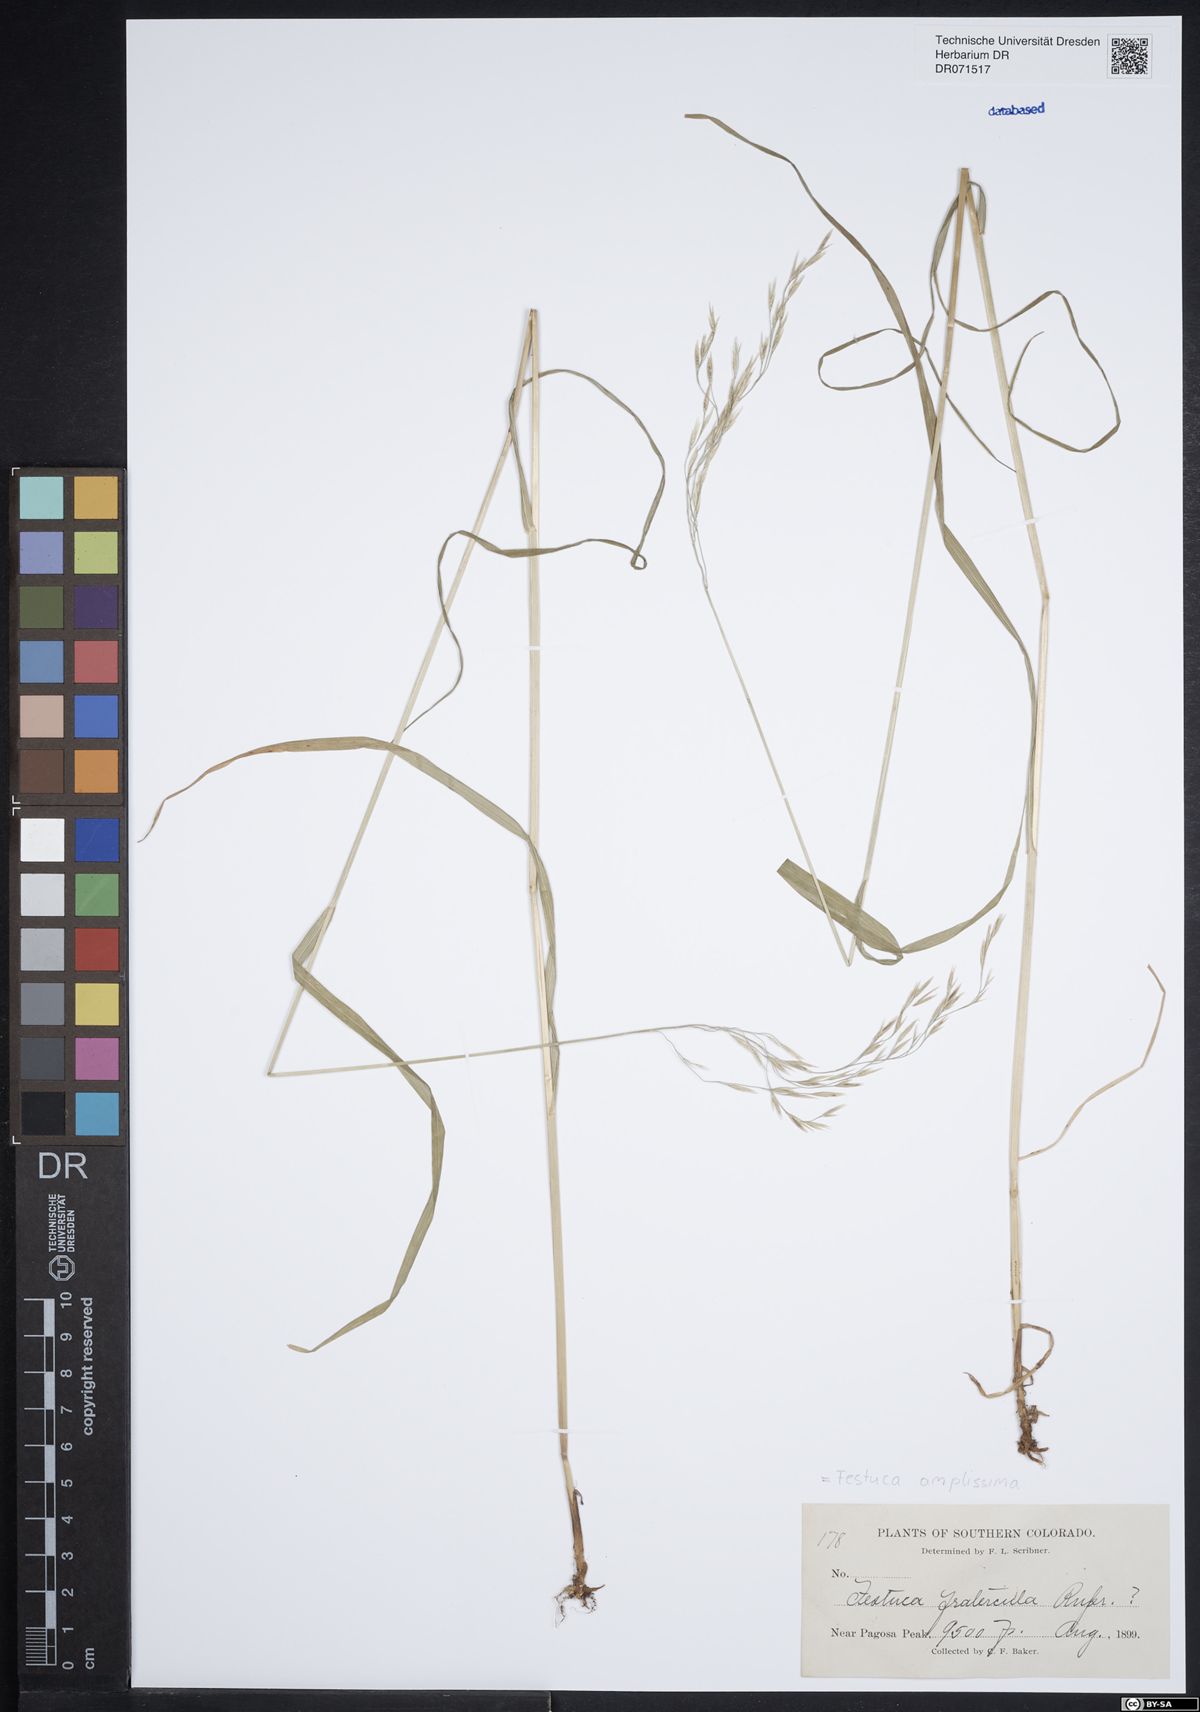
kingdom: Plantae
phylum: Tracheophyta
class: Liliopsida
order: Poales
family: Poaceae
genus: Festuca
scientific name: Festuca amplissima
